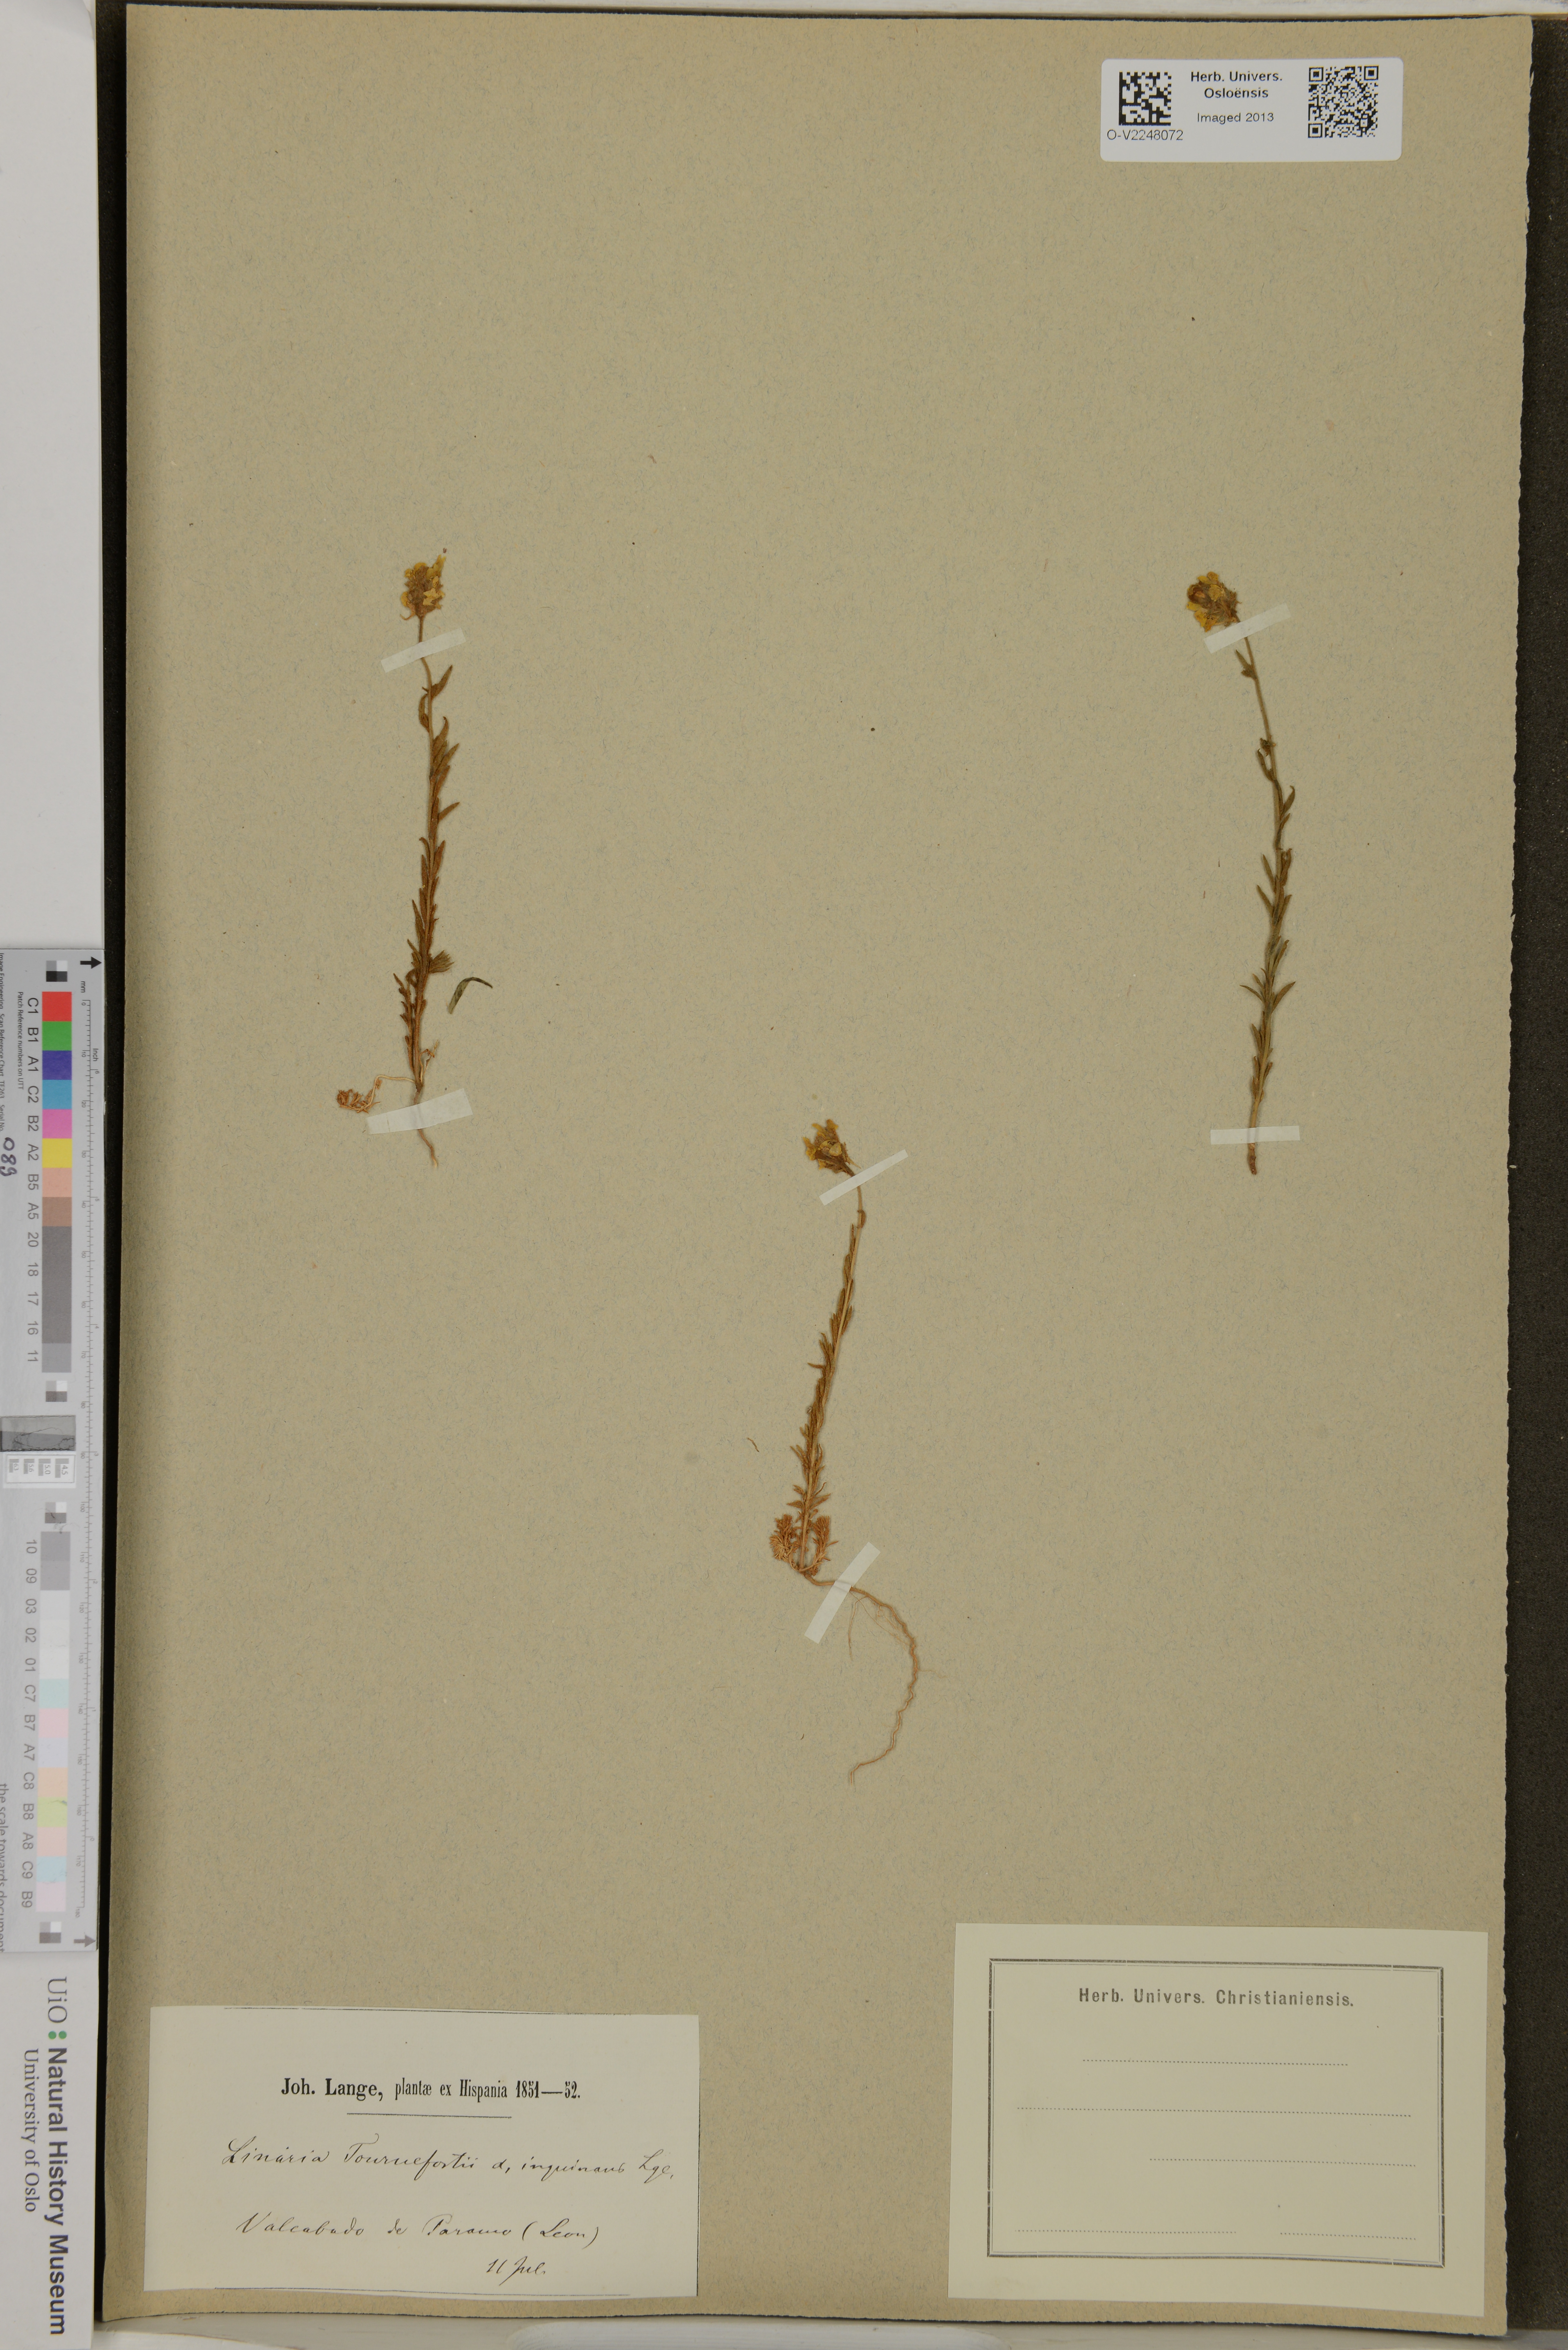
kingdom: Plantae
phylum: Tracheophyta
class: Magnoliopsida
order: Lamiales
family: Plantaginaceae
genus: Linaria
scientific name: Linaria saxatilis
